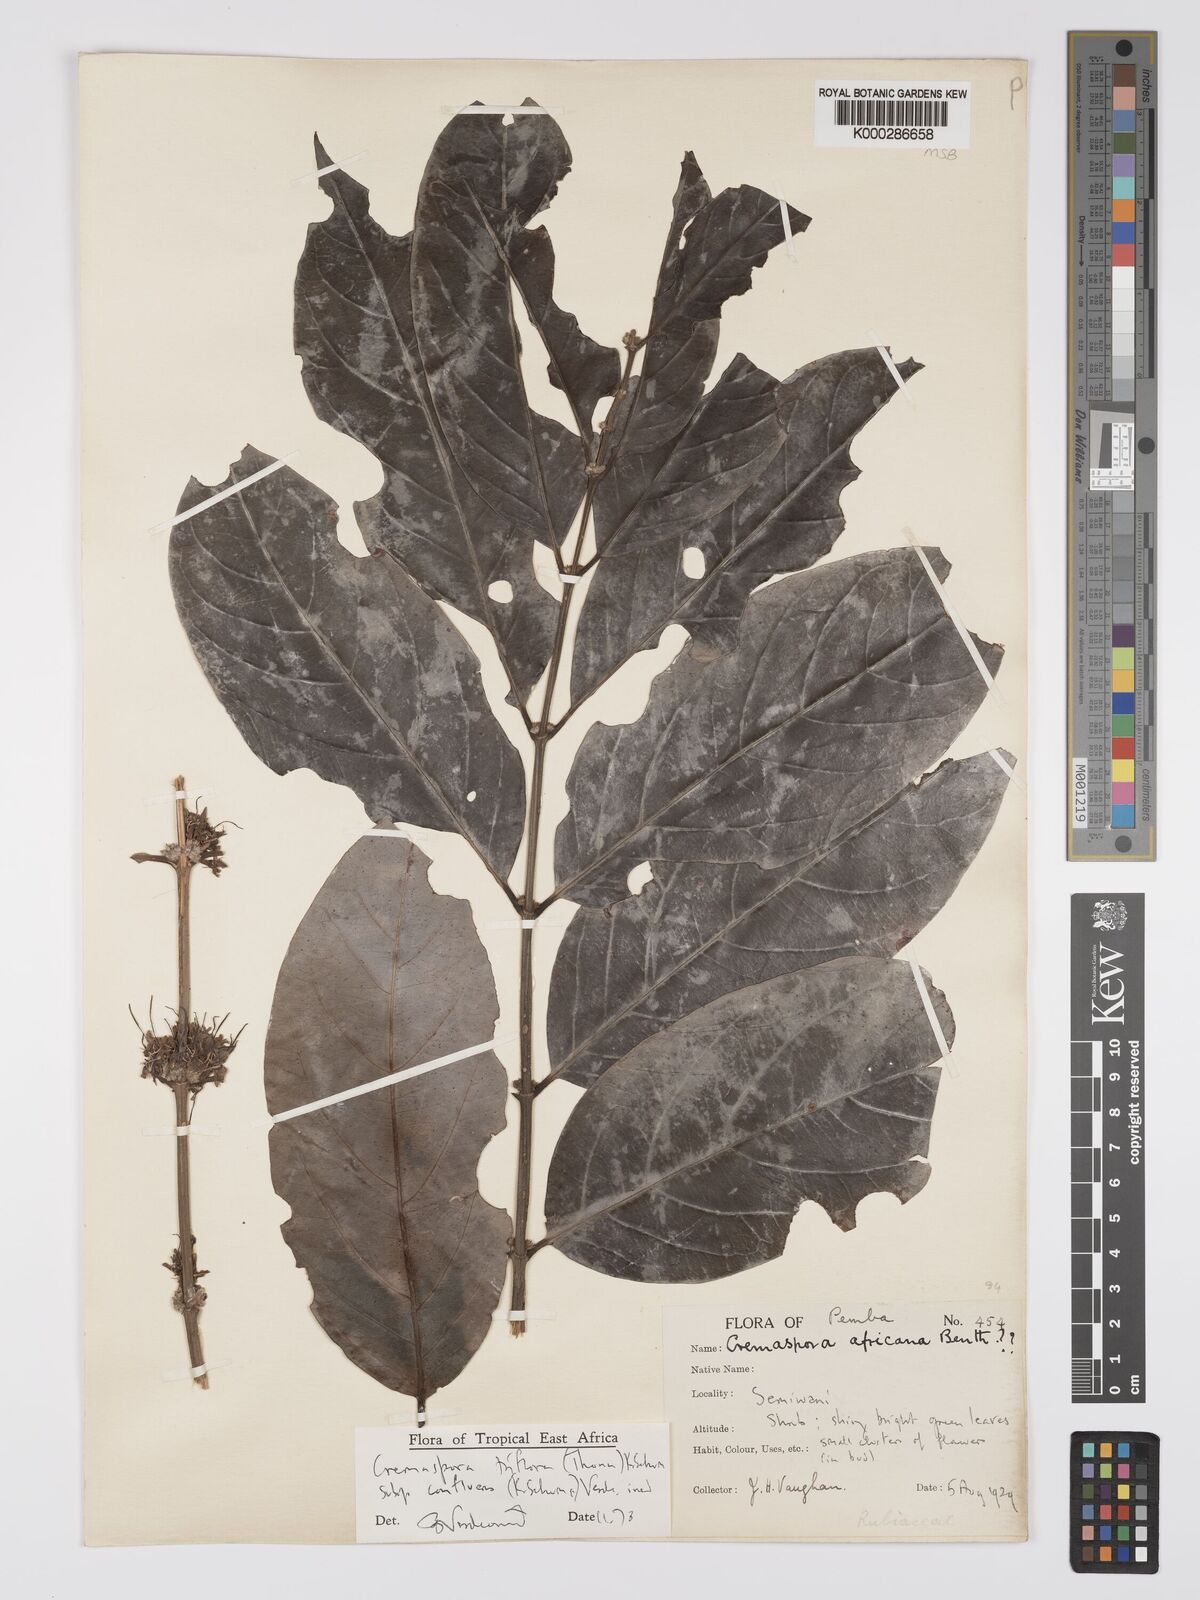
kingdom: Plantae
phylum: Tracheophyta
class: Magnoliopsida
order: Gentianales
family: Rubiaceae
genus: Cremaspora
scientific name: Cremaspora triflora
